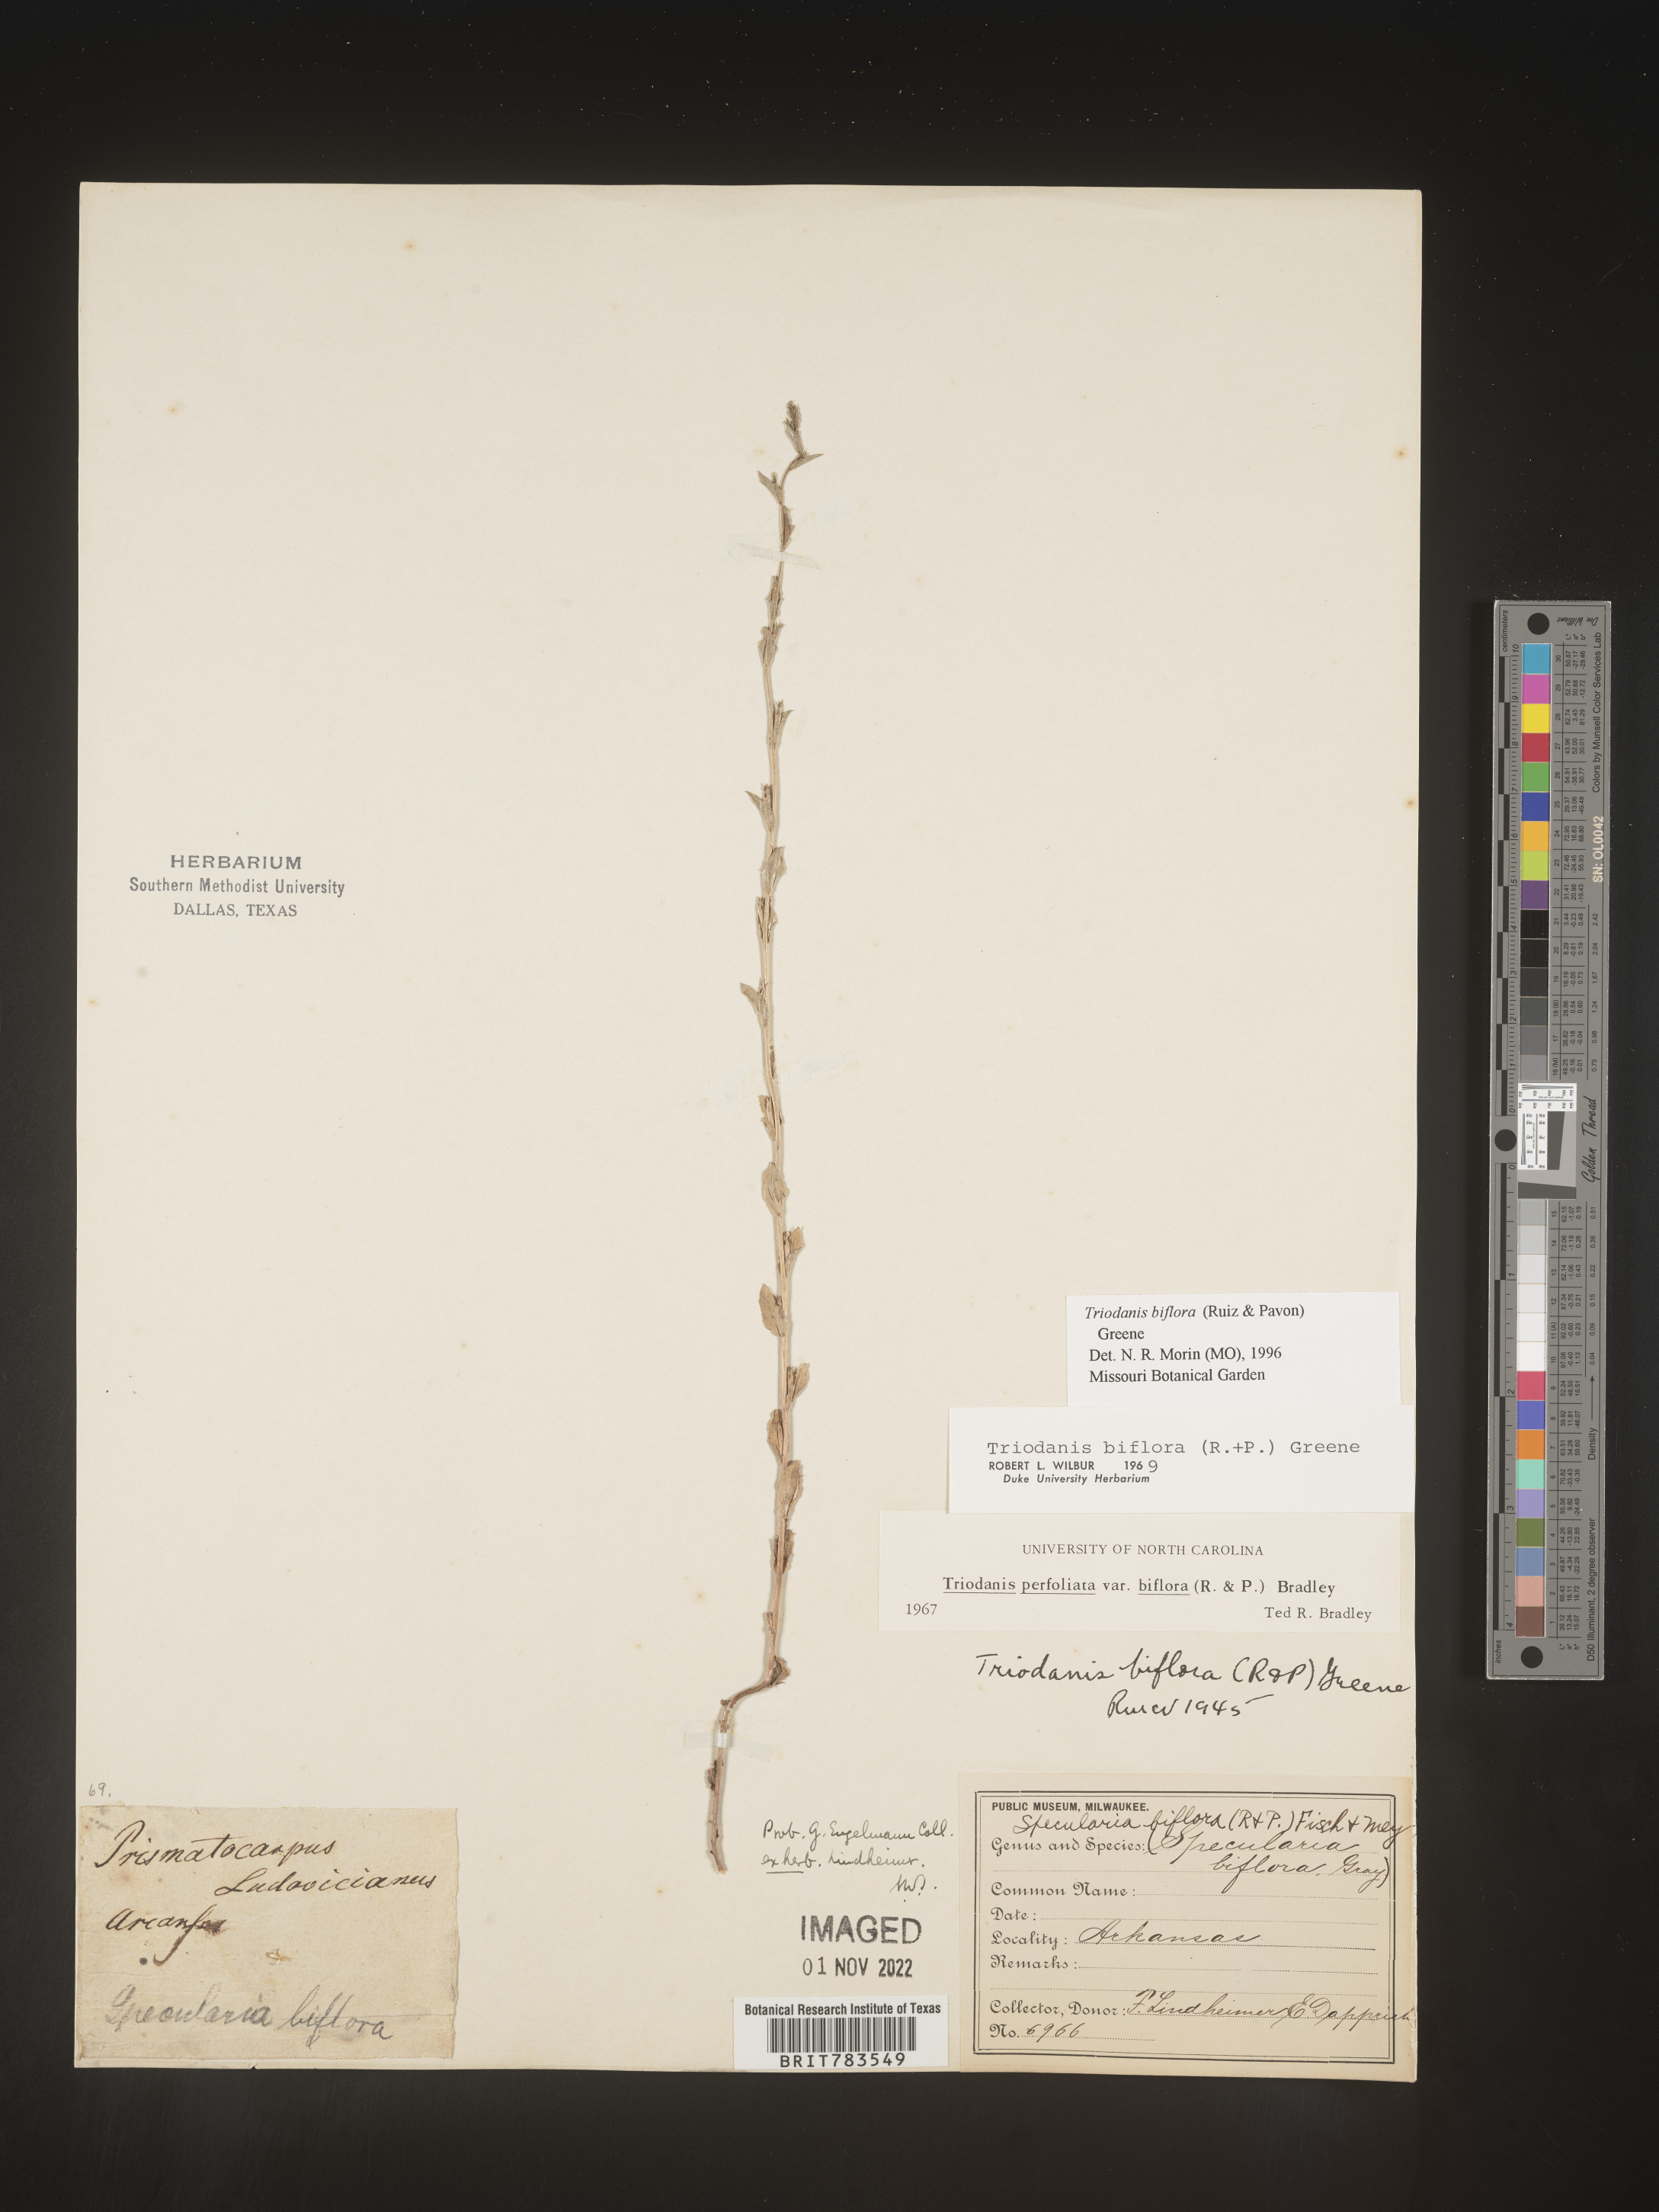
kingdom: Plantae
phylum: Tracheophyta
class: Magnoliopsida
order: Asterales
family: Campanulaceae
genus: Triodanis
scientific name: Triodanis perfoliata
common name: Clasping venus' looking-glass
